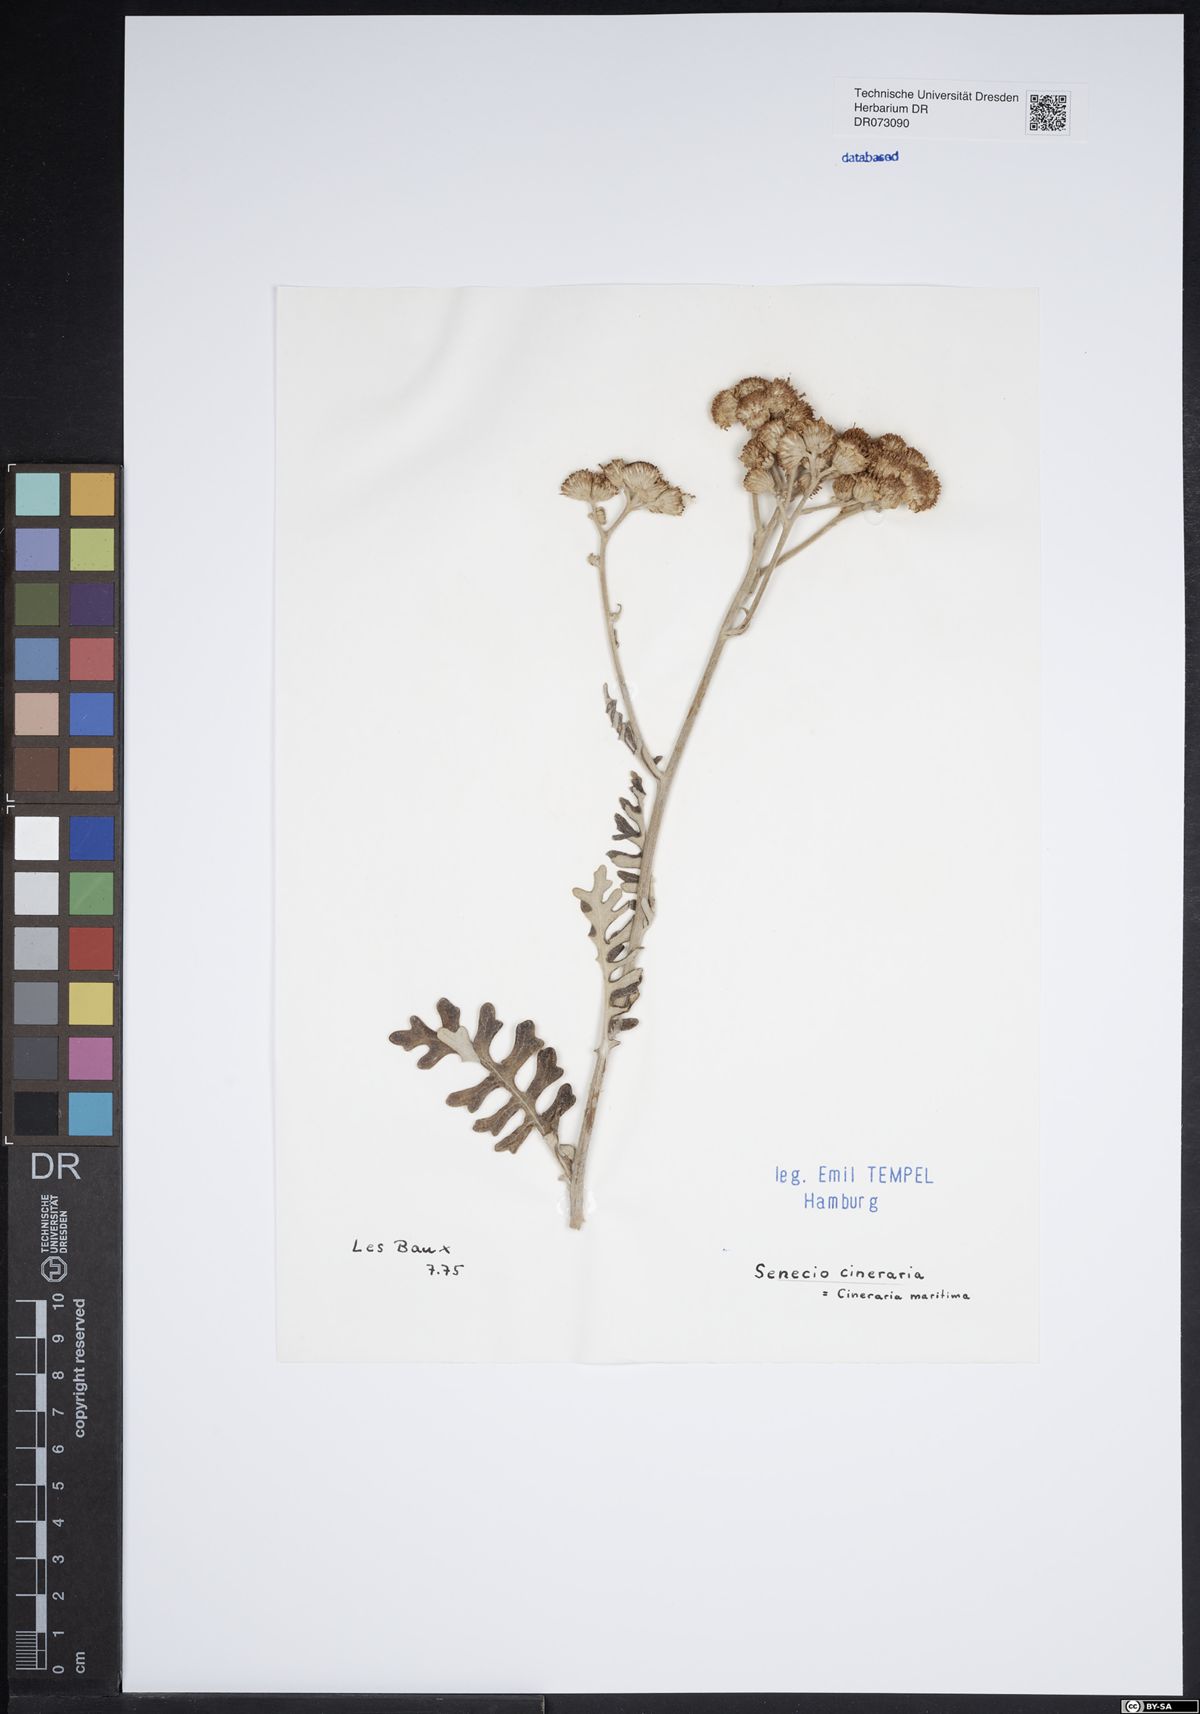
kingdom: Plantae
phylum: Tracheophyta
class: Magnoliopsida
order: Asterales
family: Asteraceae
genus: Centaurea
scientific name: Centaurea nervosa
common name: Singleflower knapweed
